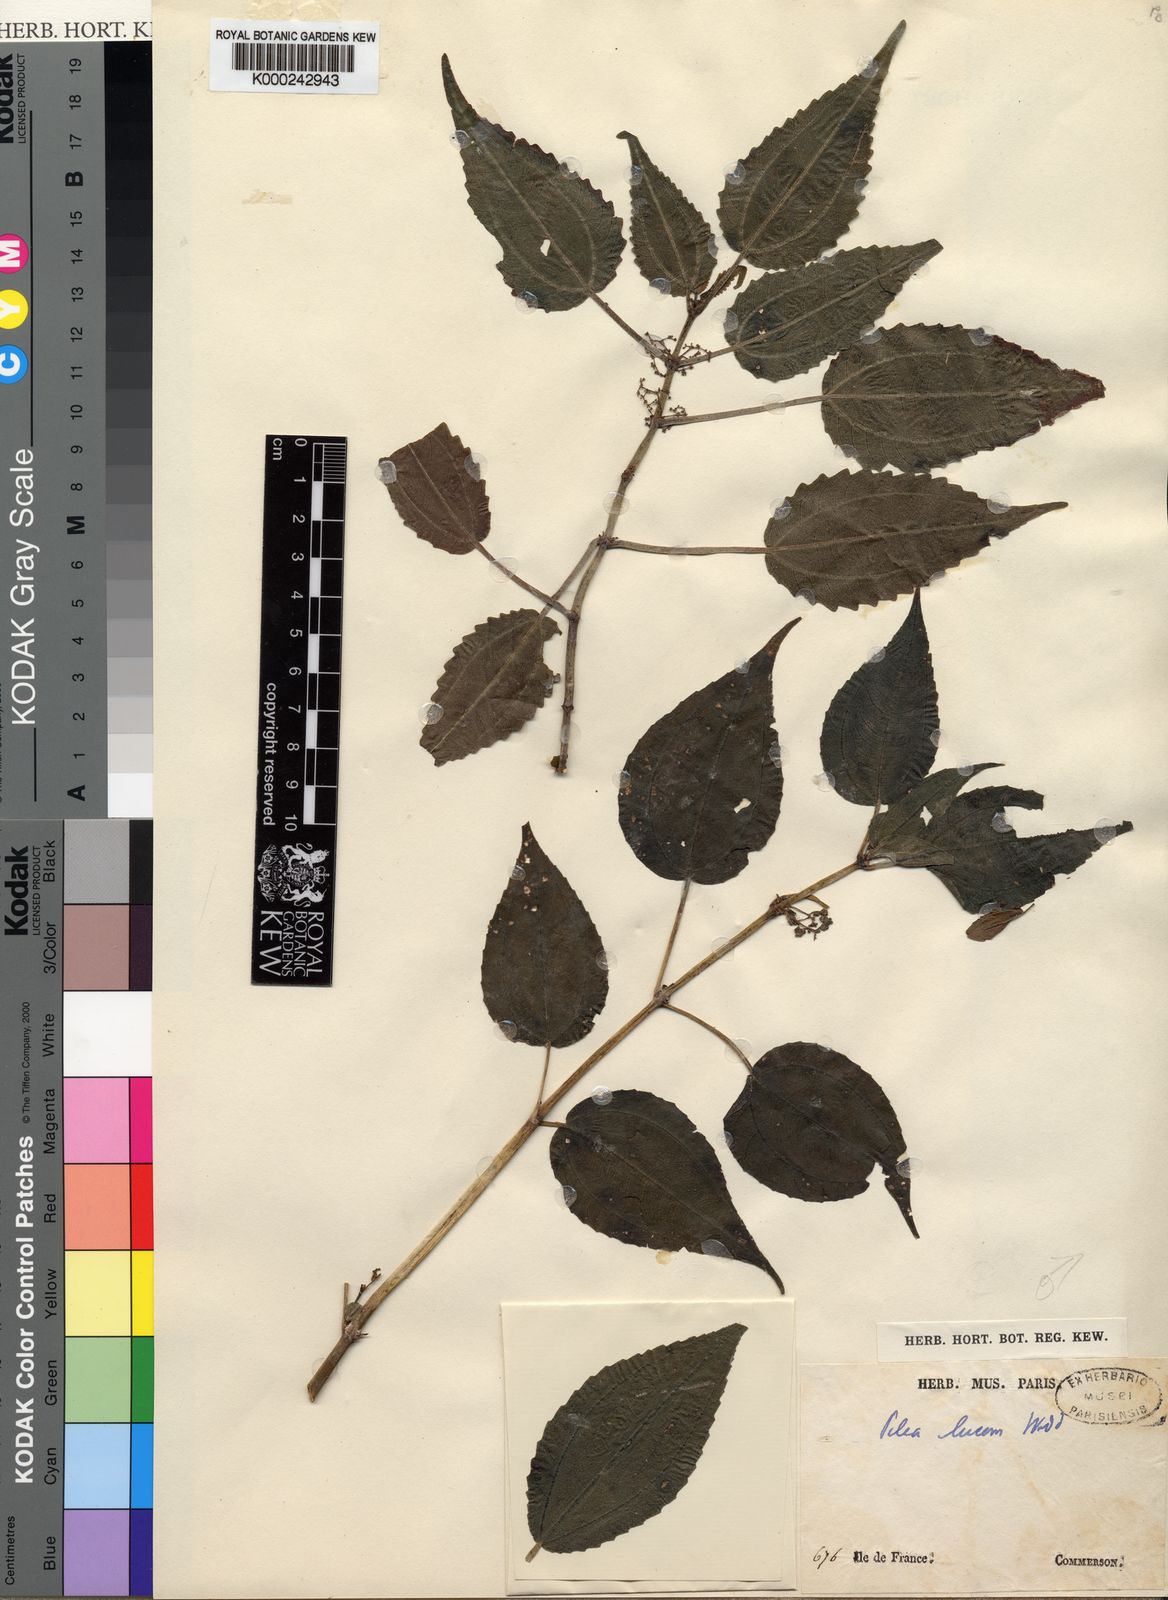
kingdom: Plantae
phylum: Tracheophyta
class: Magnoliopsida
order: Rosales
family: Urticaceae
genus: Pilea
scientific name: Pilea lucens
